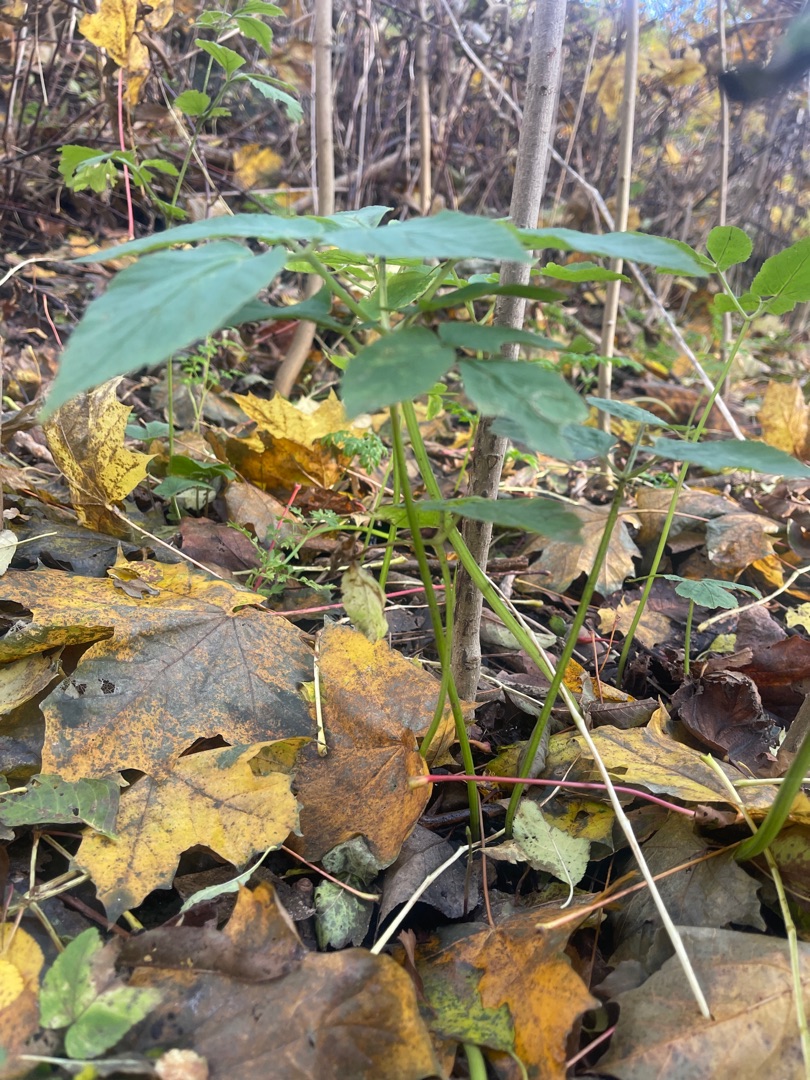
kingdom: Plantae
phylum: Tracheophyta
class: Magnoliopsida
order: Apiales
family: Apiaceae
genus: Aegopodium
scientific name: Aegopodium podagraria
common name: Skvalderkål
